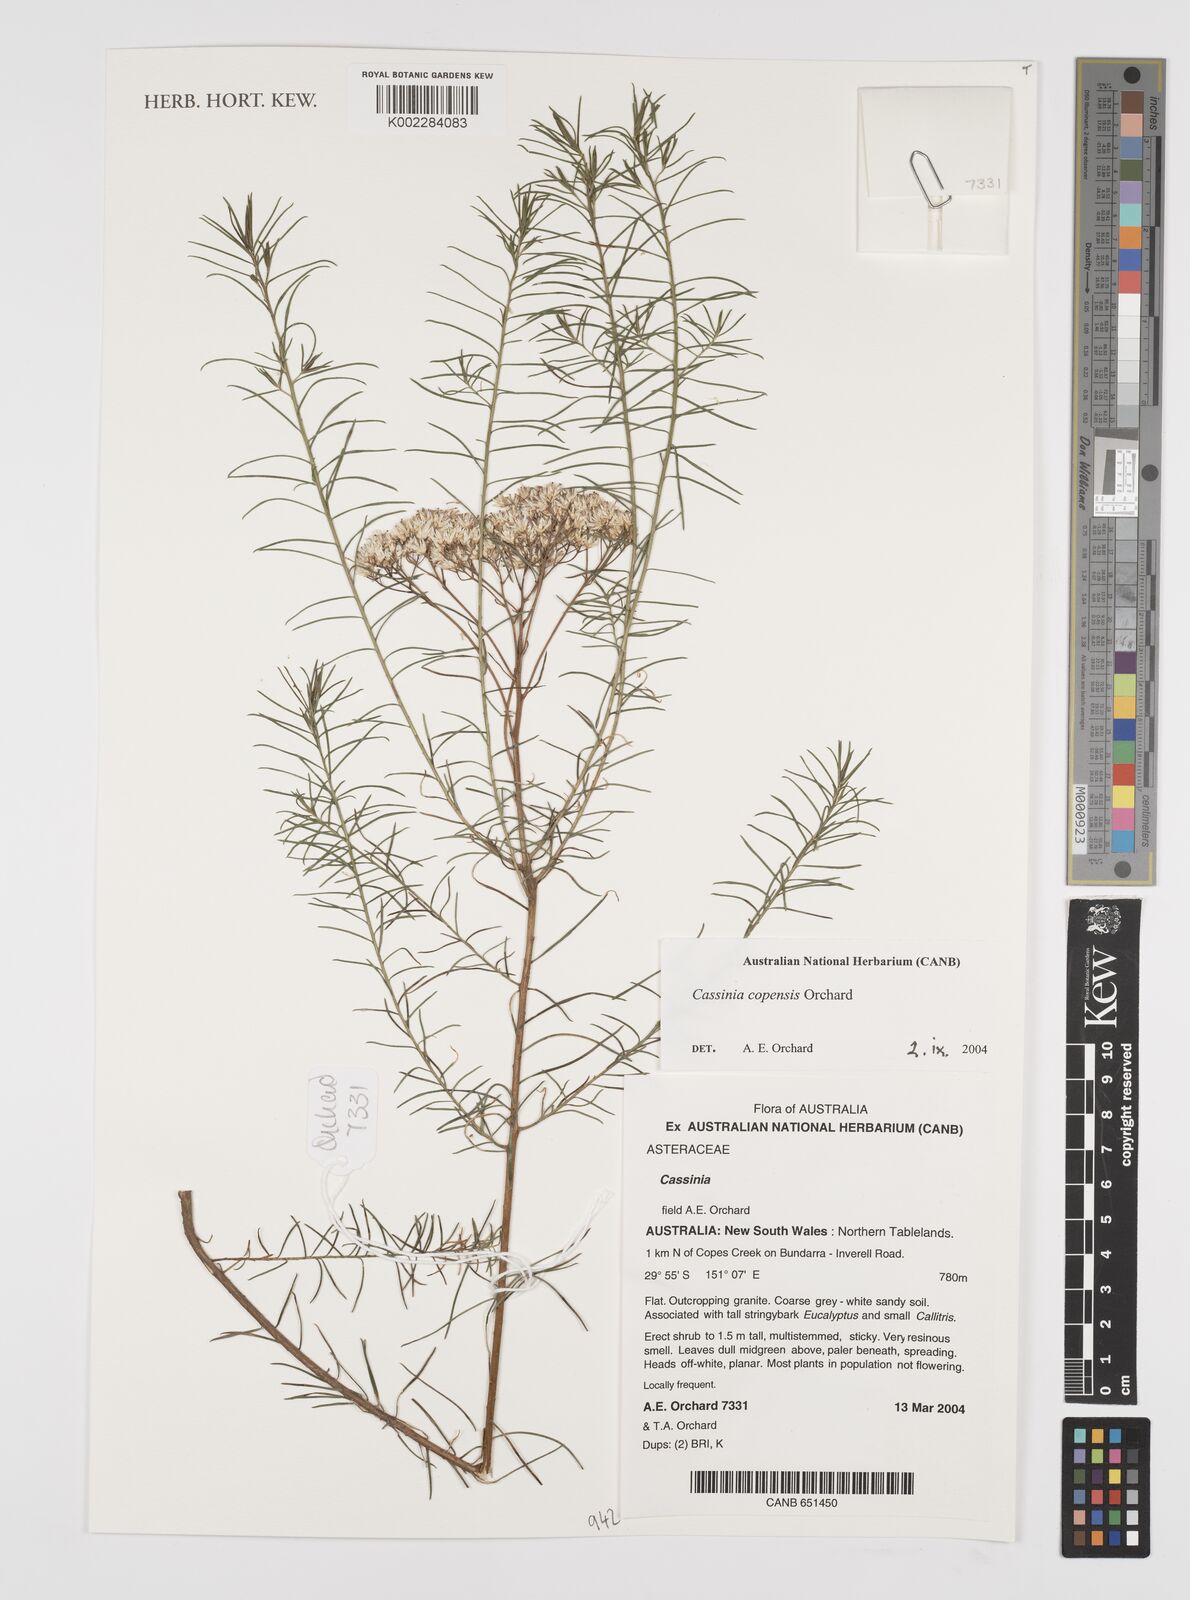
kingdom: Plantae
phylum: Tracheophyta
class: Magnoliopsida
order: Asterales
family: Asteraceae
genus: Cassinia
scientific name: Cassinia copensis
